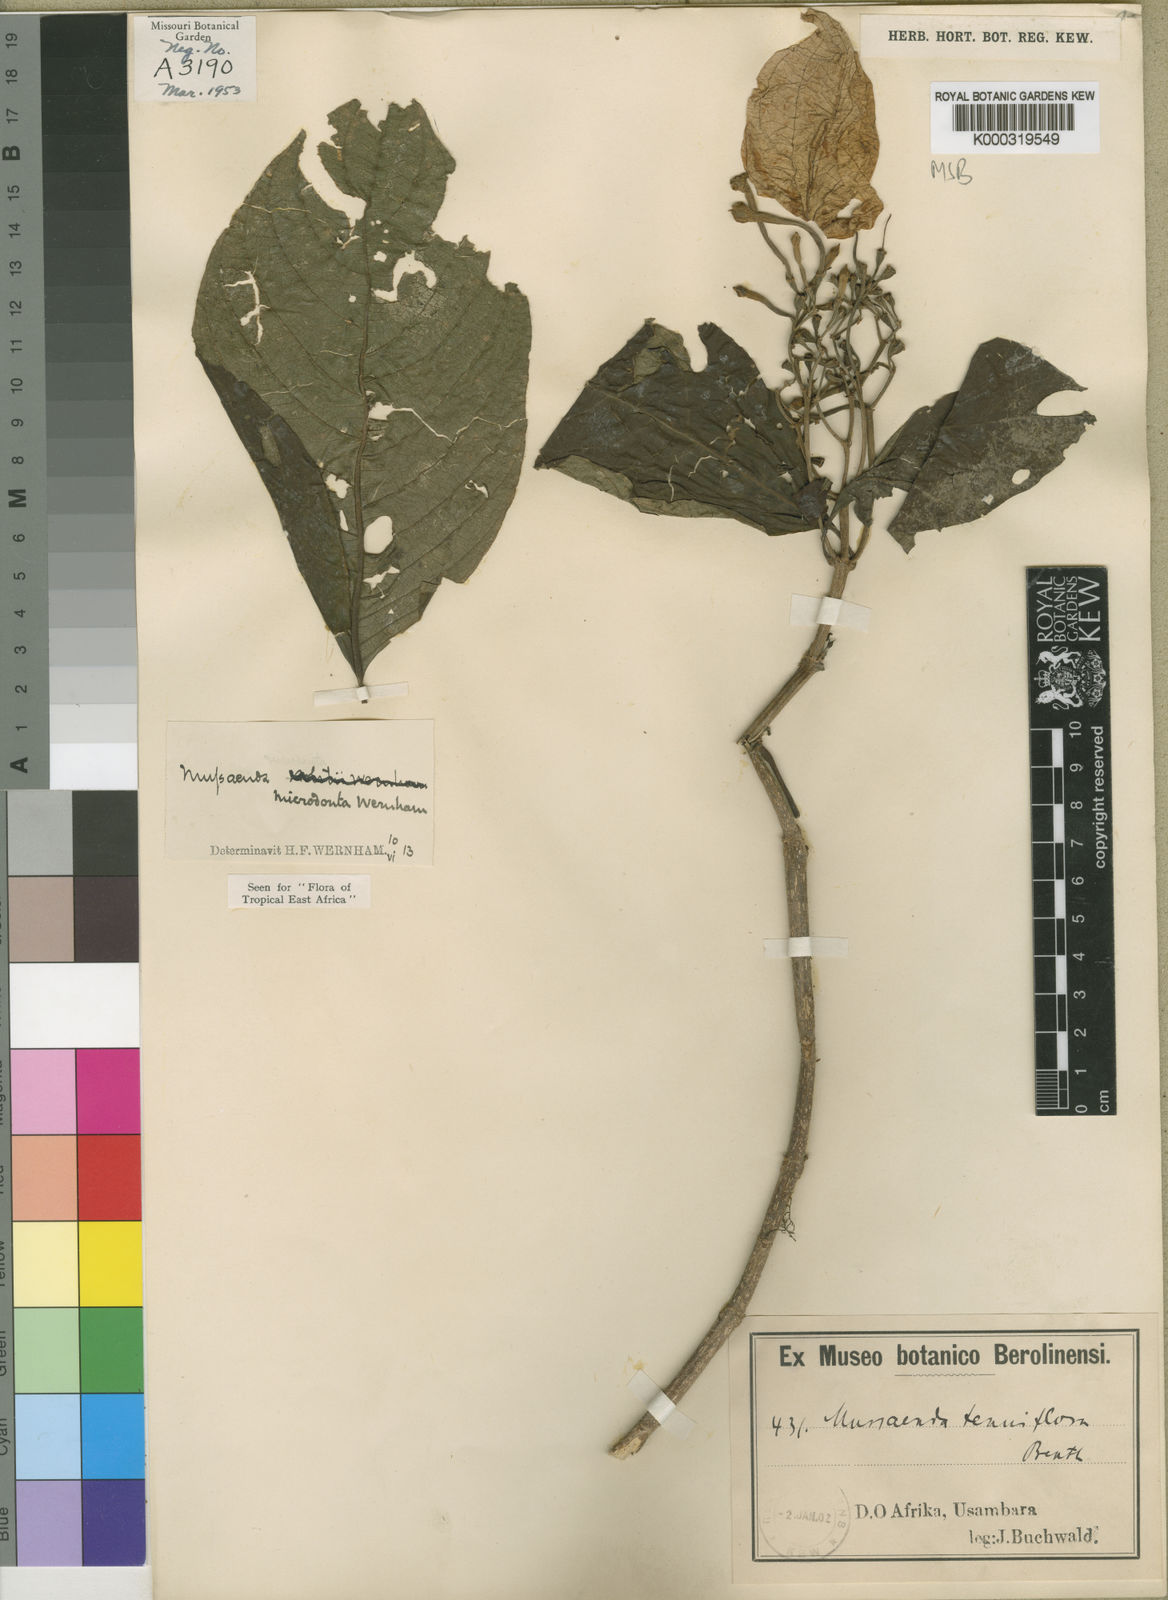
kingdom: Plantae
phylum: Tracheophyta
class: Magnoliopsida
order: Gentianales
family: Rubiaceae
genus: Mussaenda
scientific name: Mussaenda microdonta
